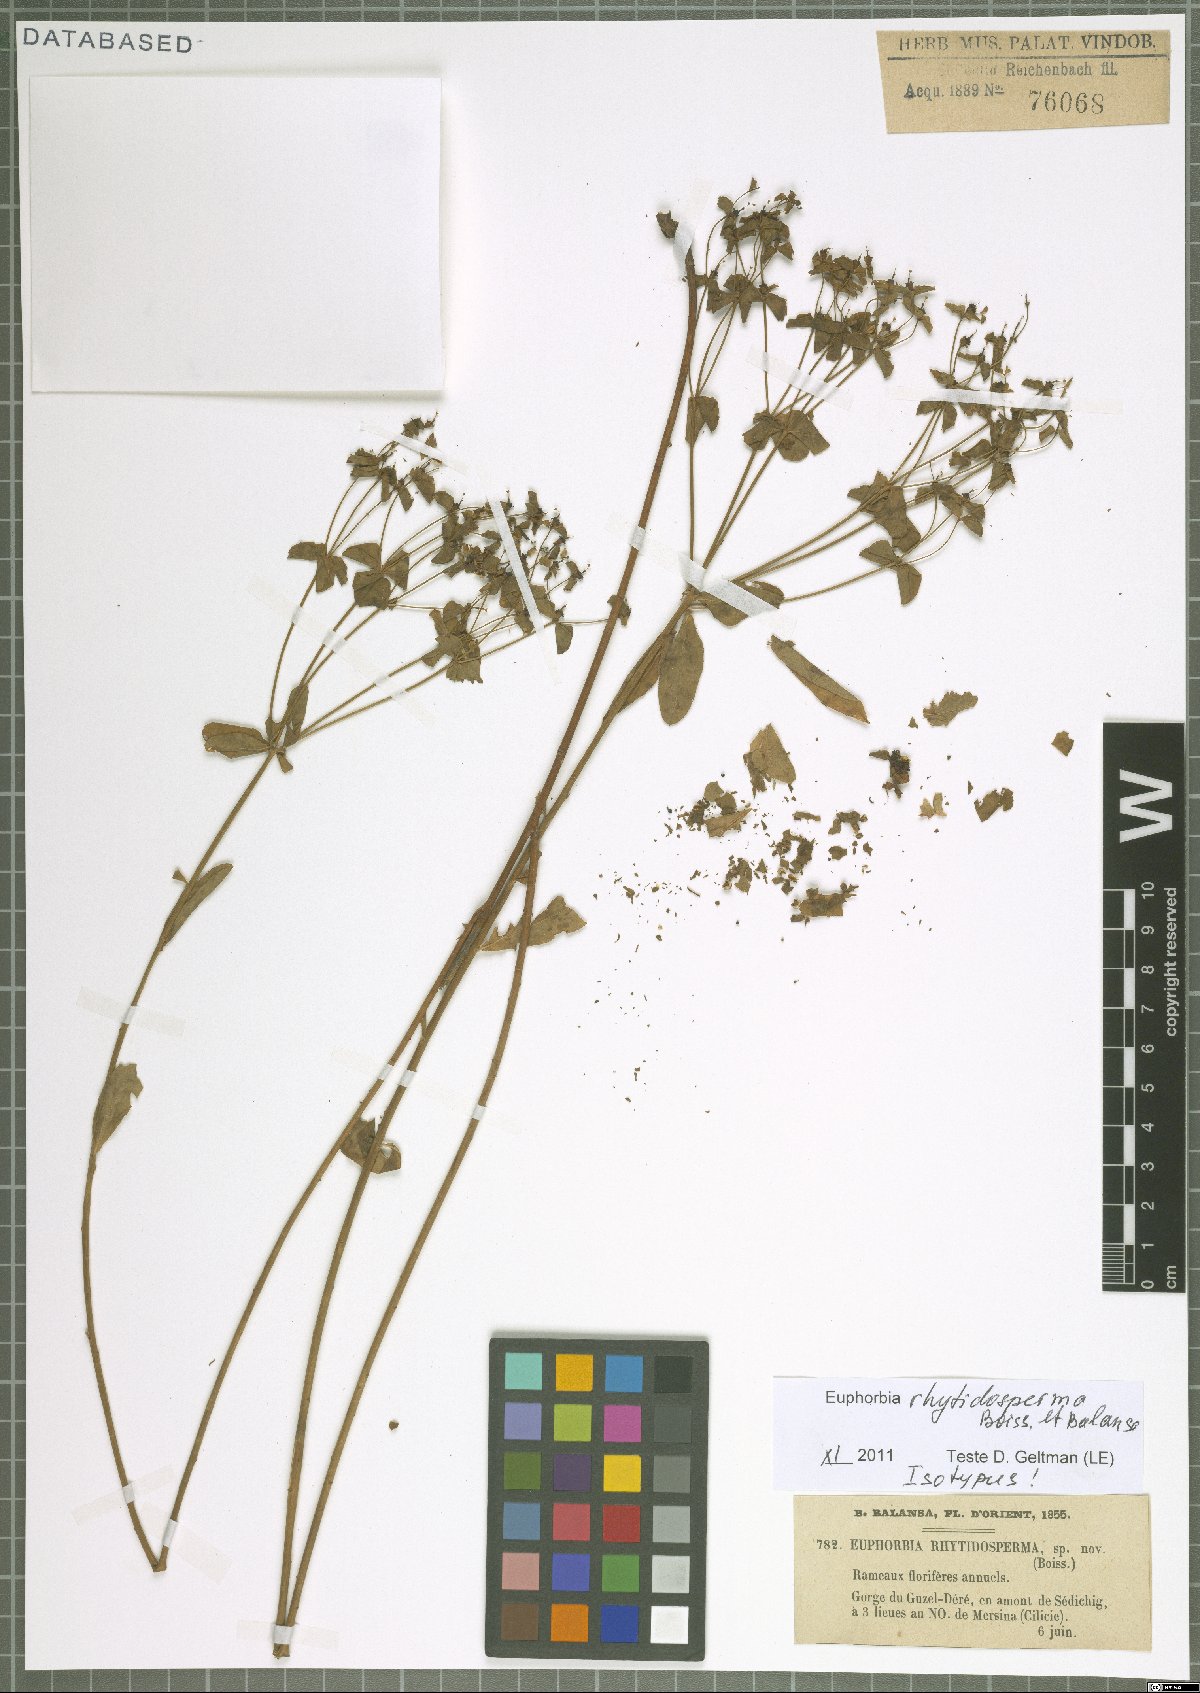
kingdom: Plantae
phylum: Tracheophyta
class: Magnoliopsida
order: Malpighiales
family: Euphorbiaceae
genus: Euphorbia
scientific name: Euphorbia rhytidosperma
